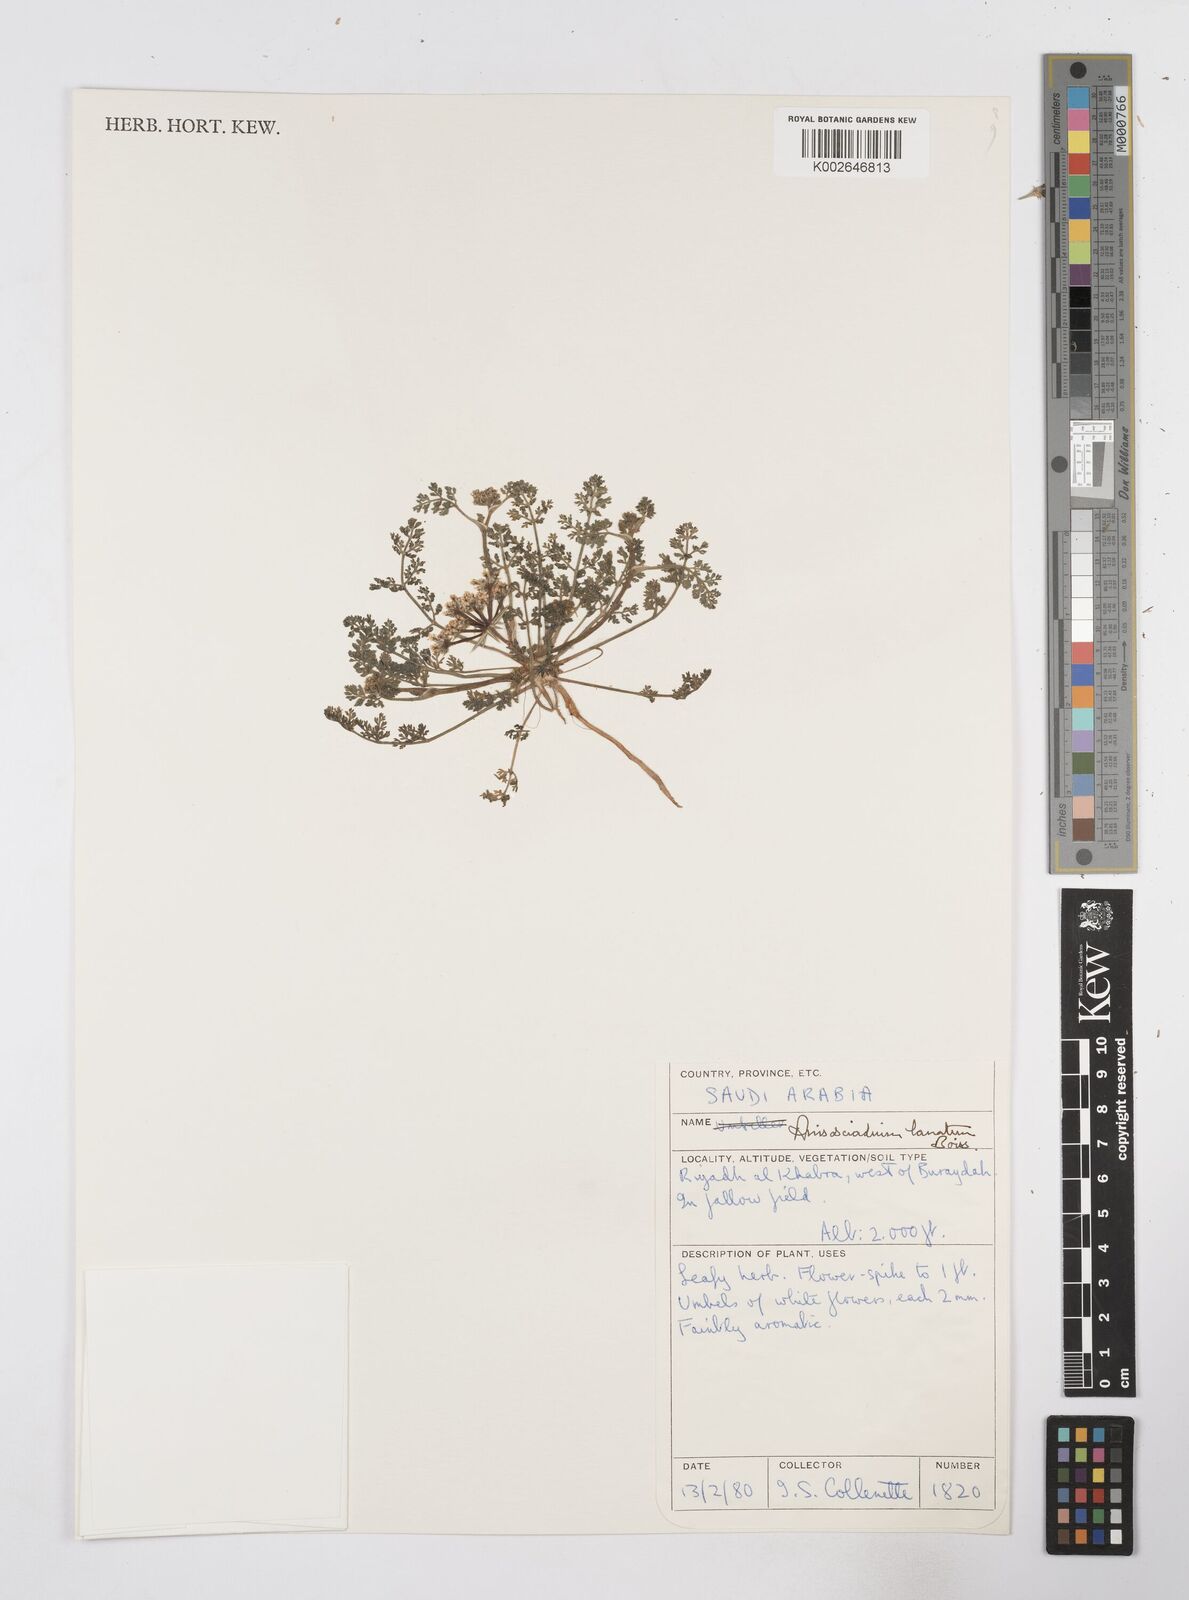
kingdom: Plantae
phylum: Tracheophyta
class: Magnoliopsida
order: Apiales
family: Apiaceae
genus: Anisosciadium
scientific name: Anisosciadium lanatum
